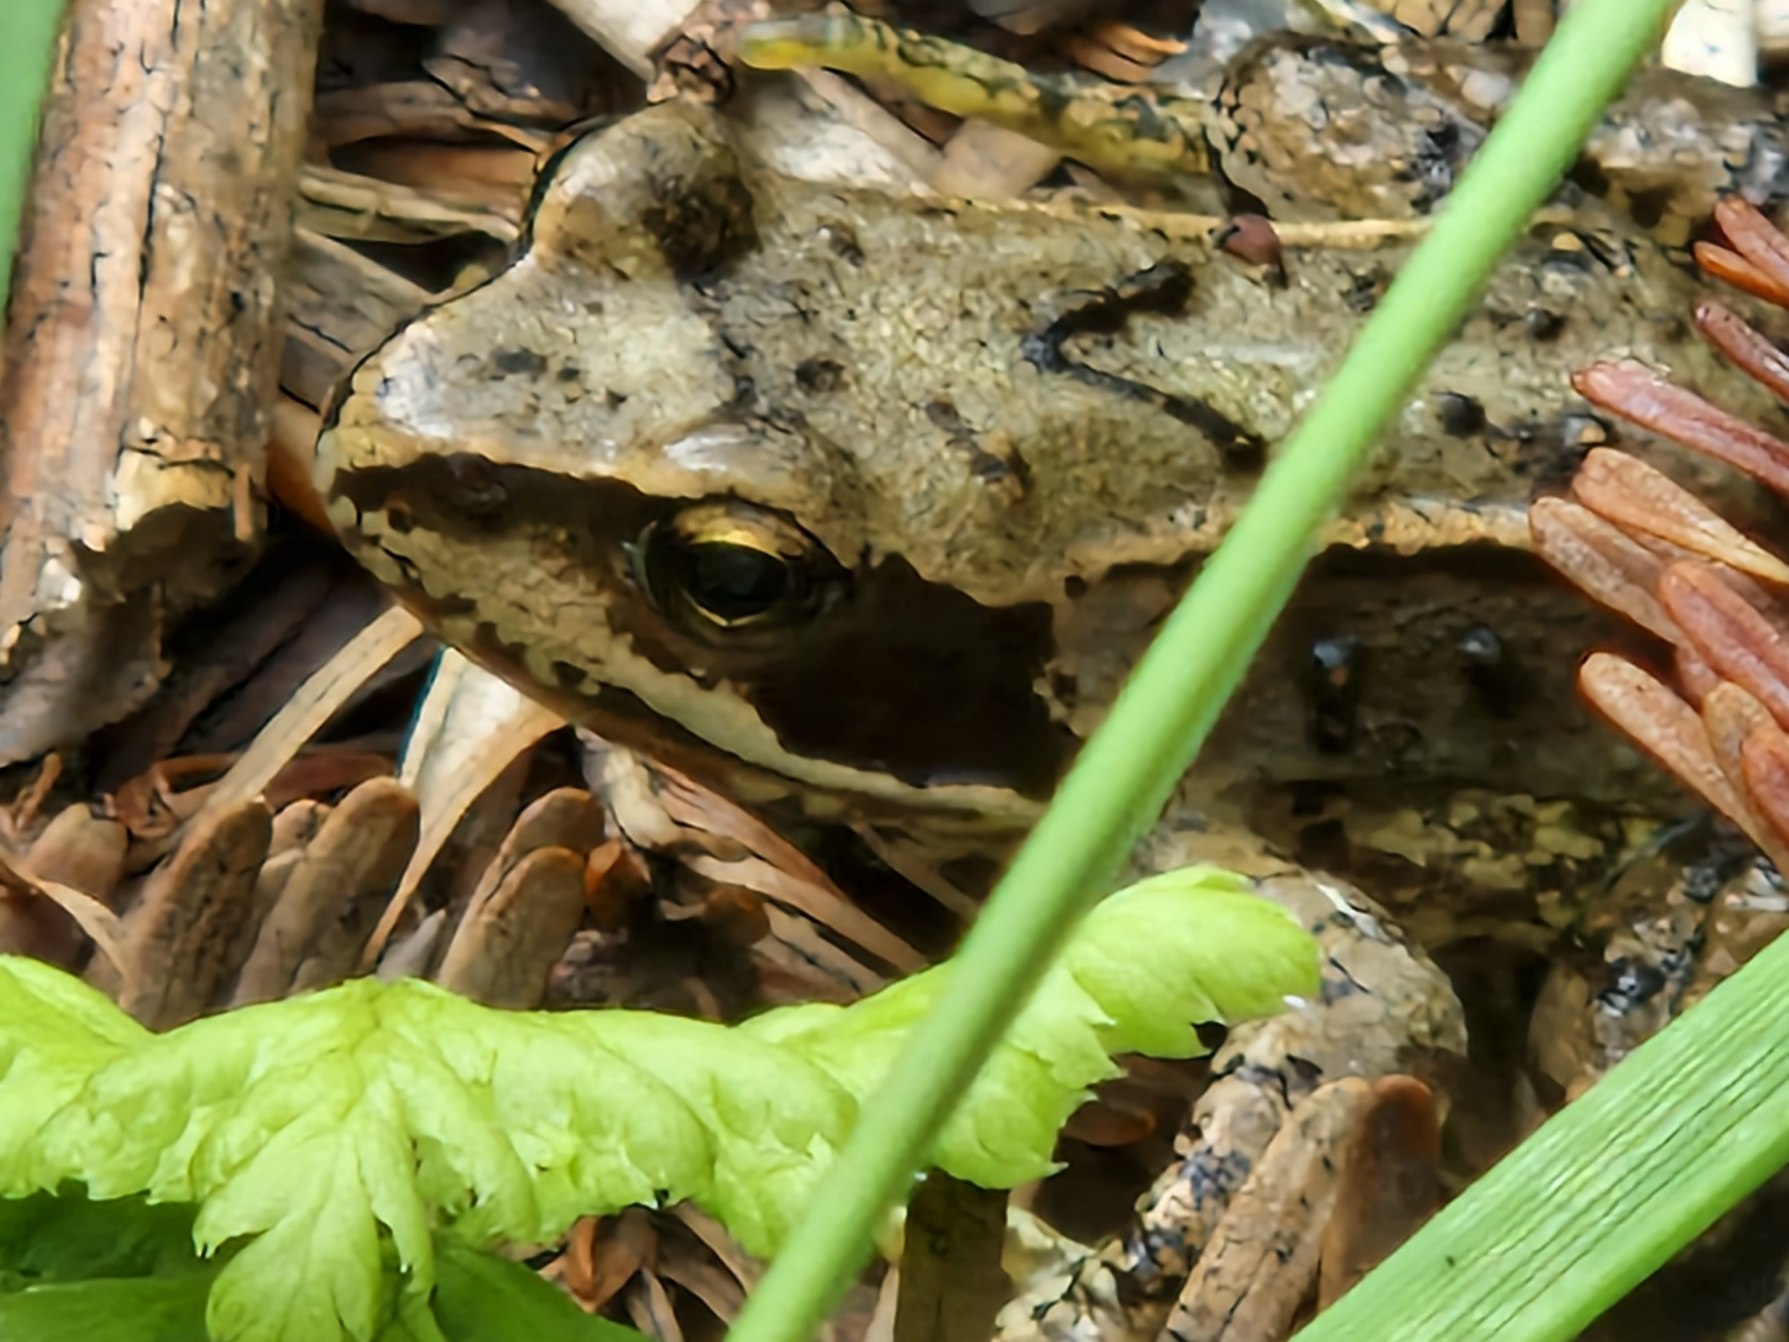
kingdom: Animalia
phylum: Chordata
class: Amphibia
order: Anura
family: Ranidae
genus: Rana
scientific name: Rana temporaria
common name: Butsnudet frø
